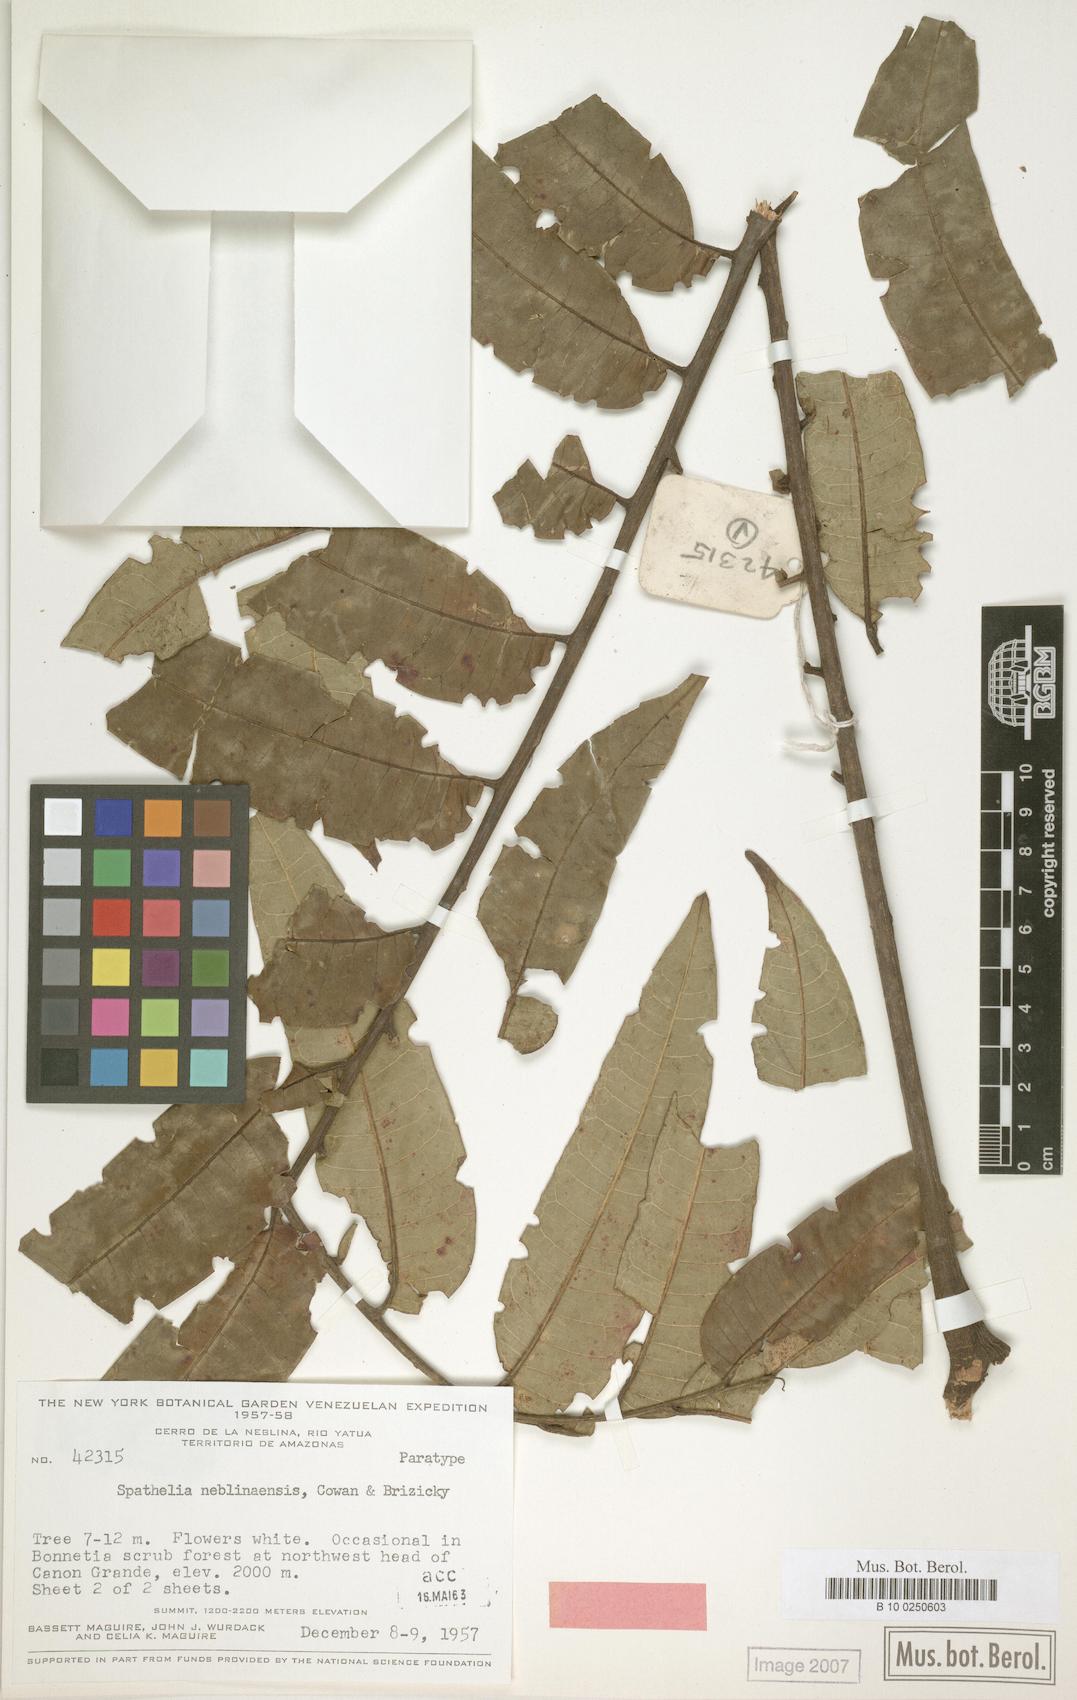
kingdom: Plantae
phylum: Tracheophyta
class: Magnoliopsida
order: Sapindales
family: Rutaceae
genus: Sohnreyia
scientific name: Sohnreyia ulei
